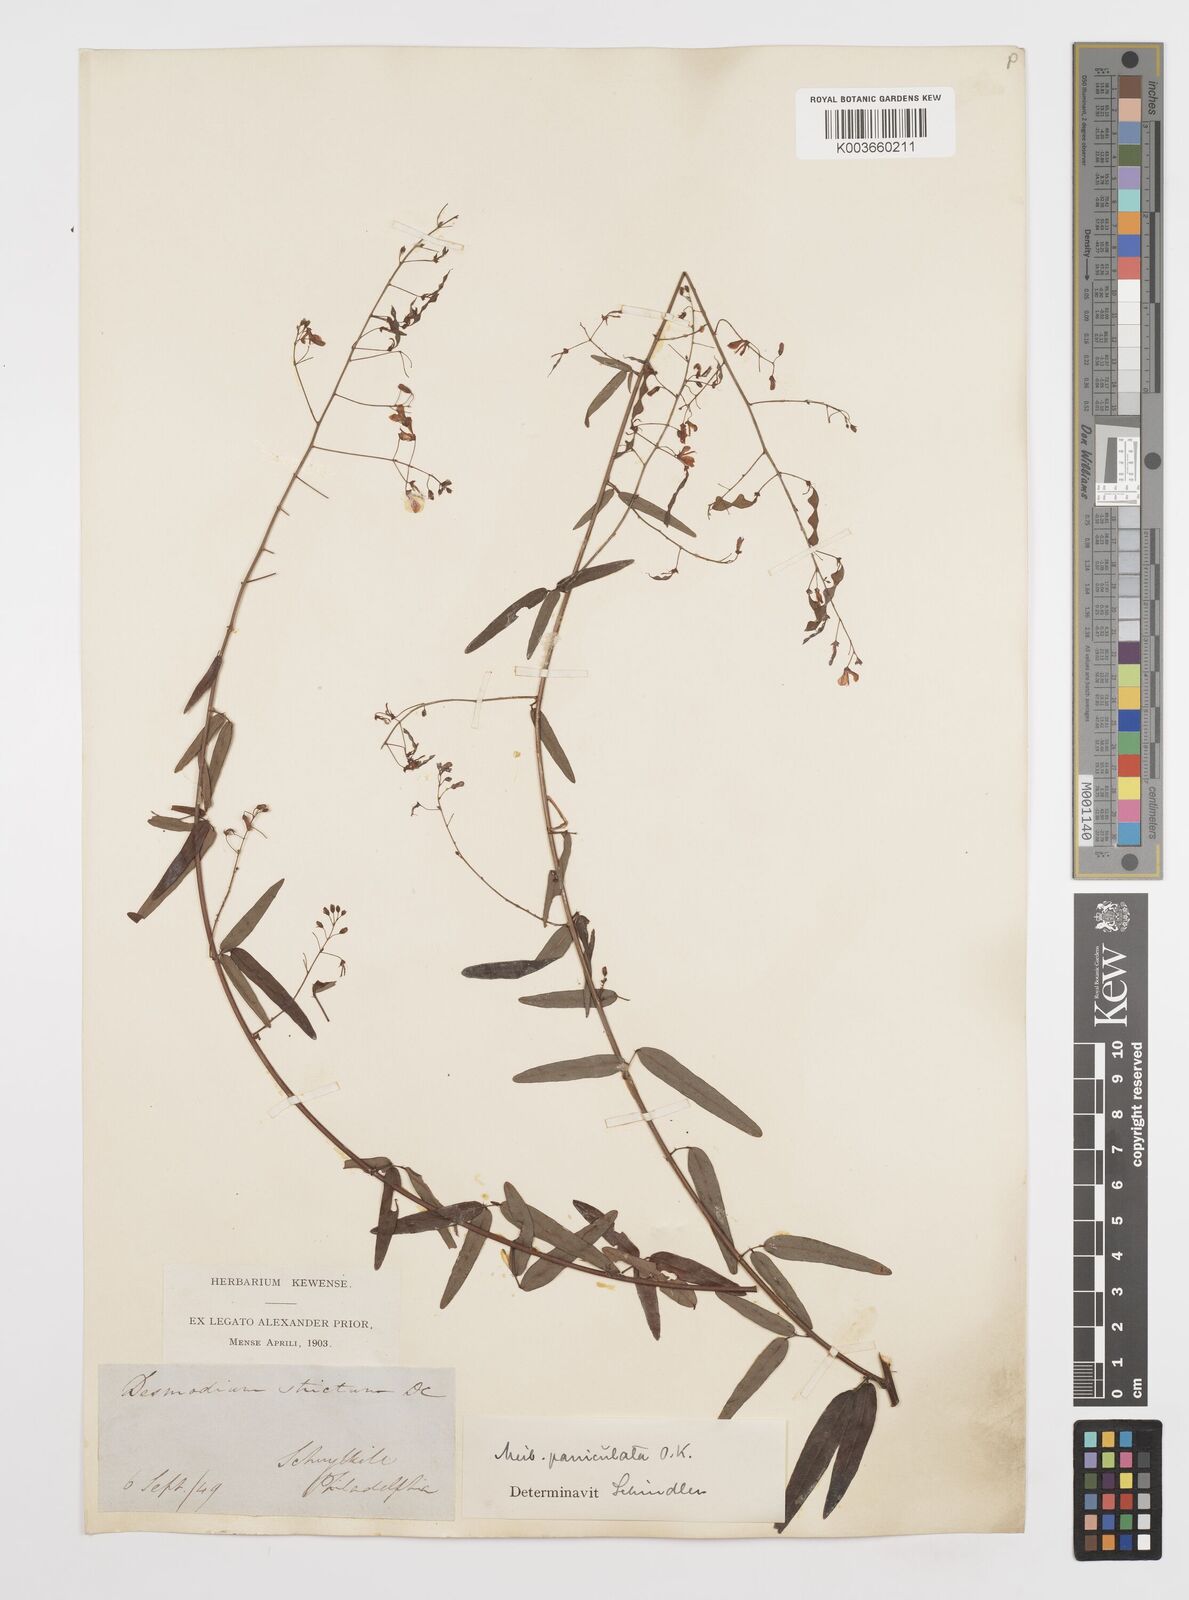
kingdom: Plantae
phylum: Tracheophyta
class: Magnoliopsida
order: Fabales
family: Fabaceae
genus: Desmodium
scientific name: Desmodium paniculatum
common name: Panicled tick-clover
